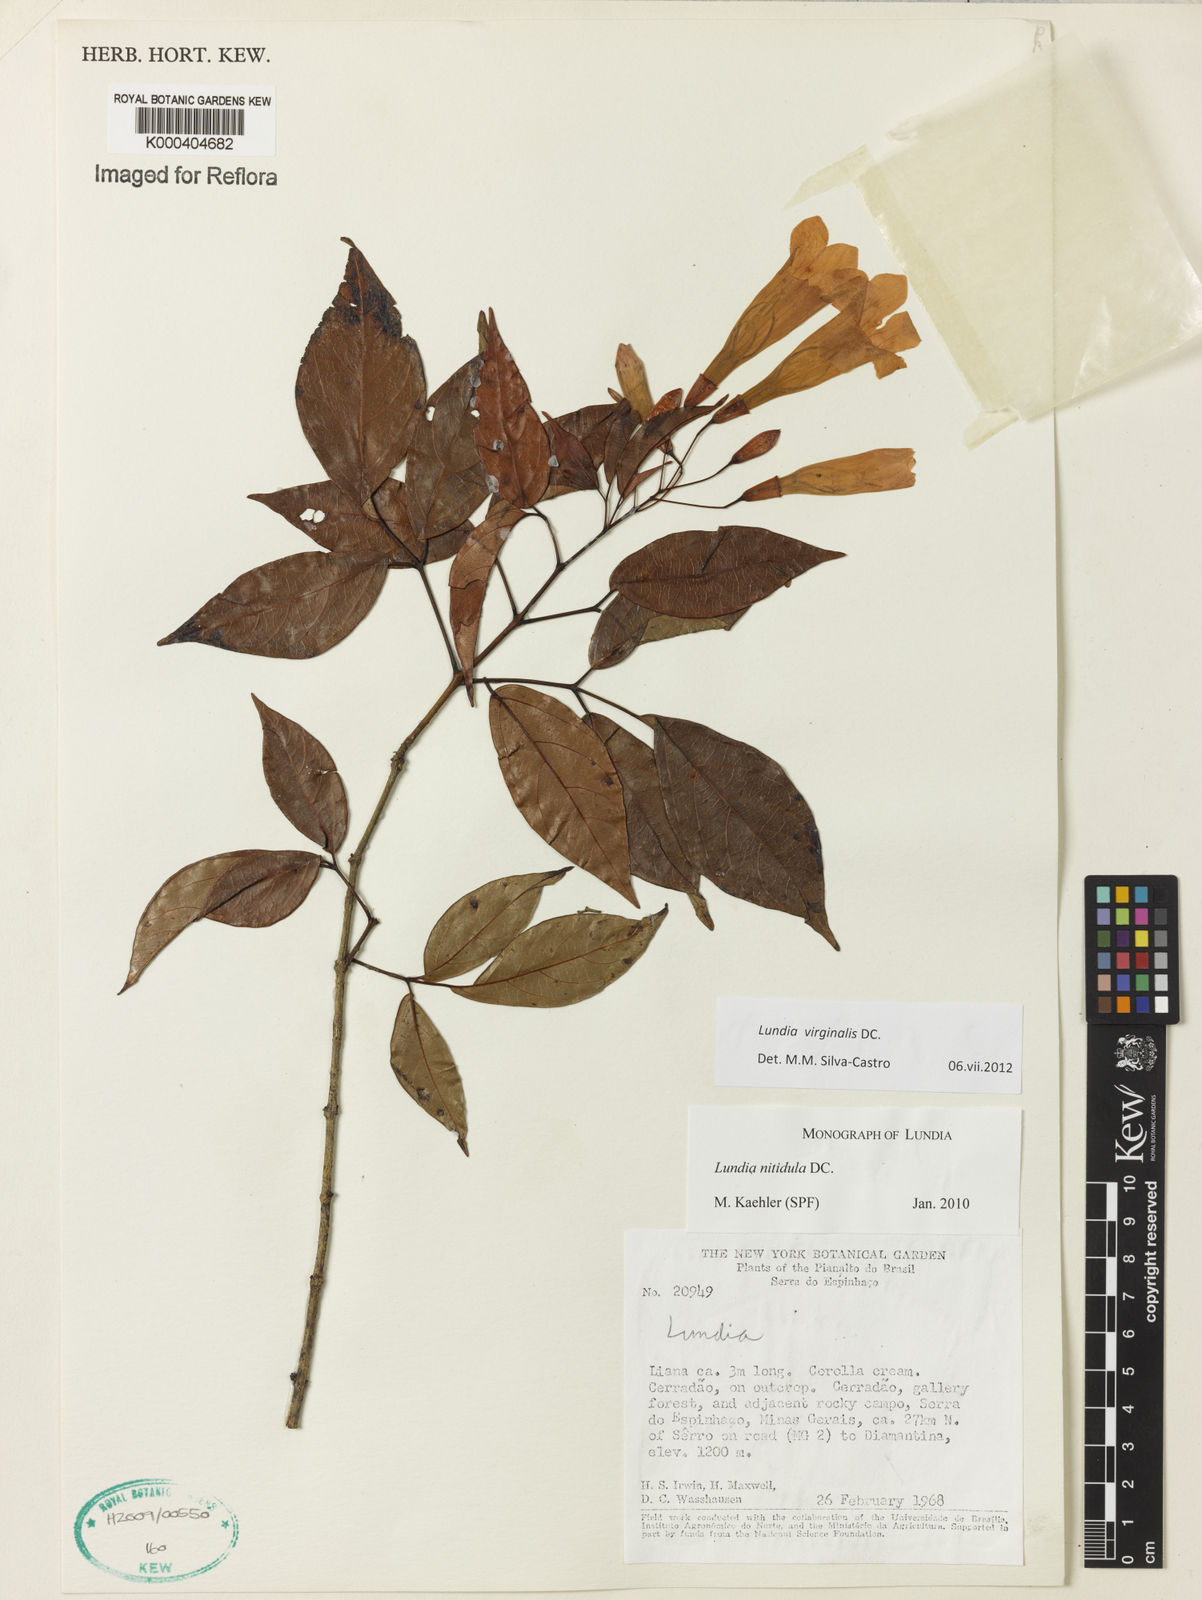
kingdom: Plantae
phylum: Tracheophyta
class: Magnoliopsida
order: Lamiales
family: Bignoniaceae
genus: Lundia
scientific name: Lundia virginalis
